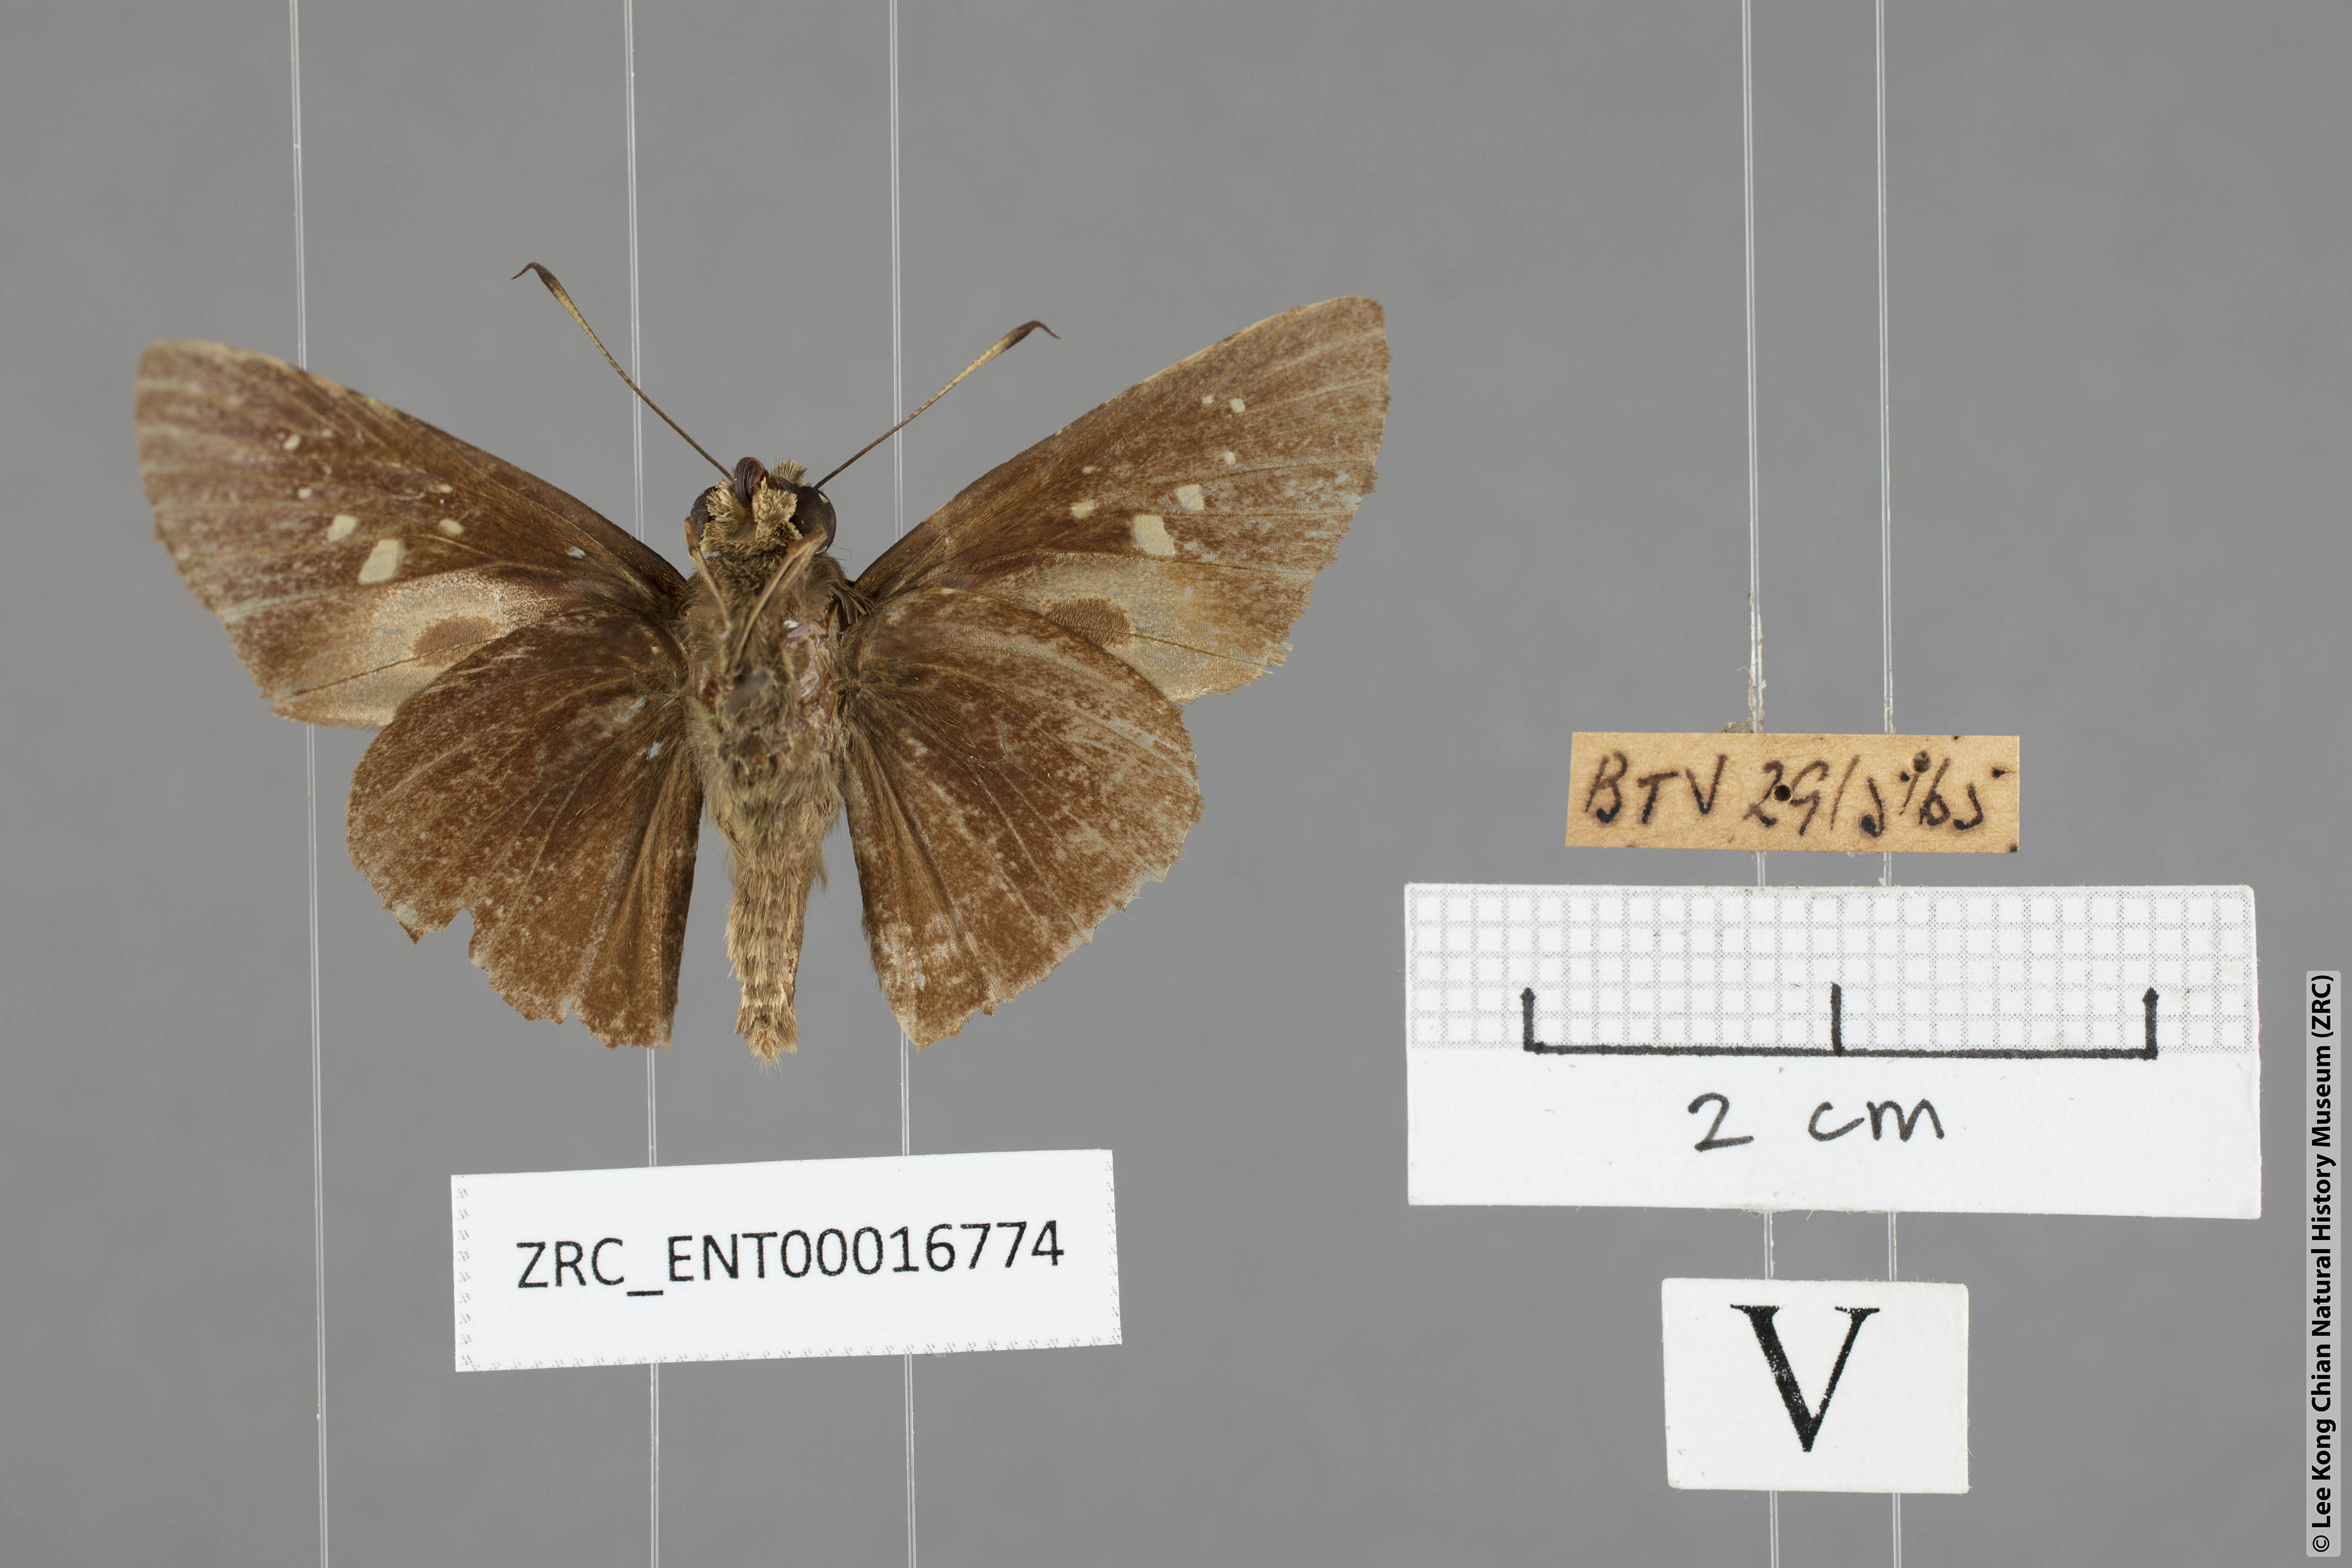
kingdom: Animalia
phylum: Arthropoda
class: Insecta
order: Lepidoptera
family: Hesperiidae
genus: Baoris
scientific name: Baoris farri
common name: Paintbrush swift
